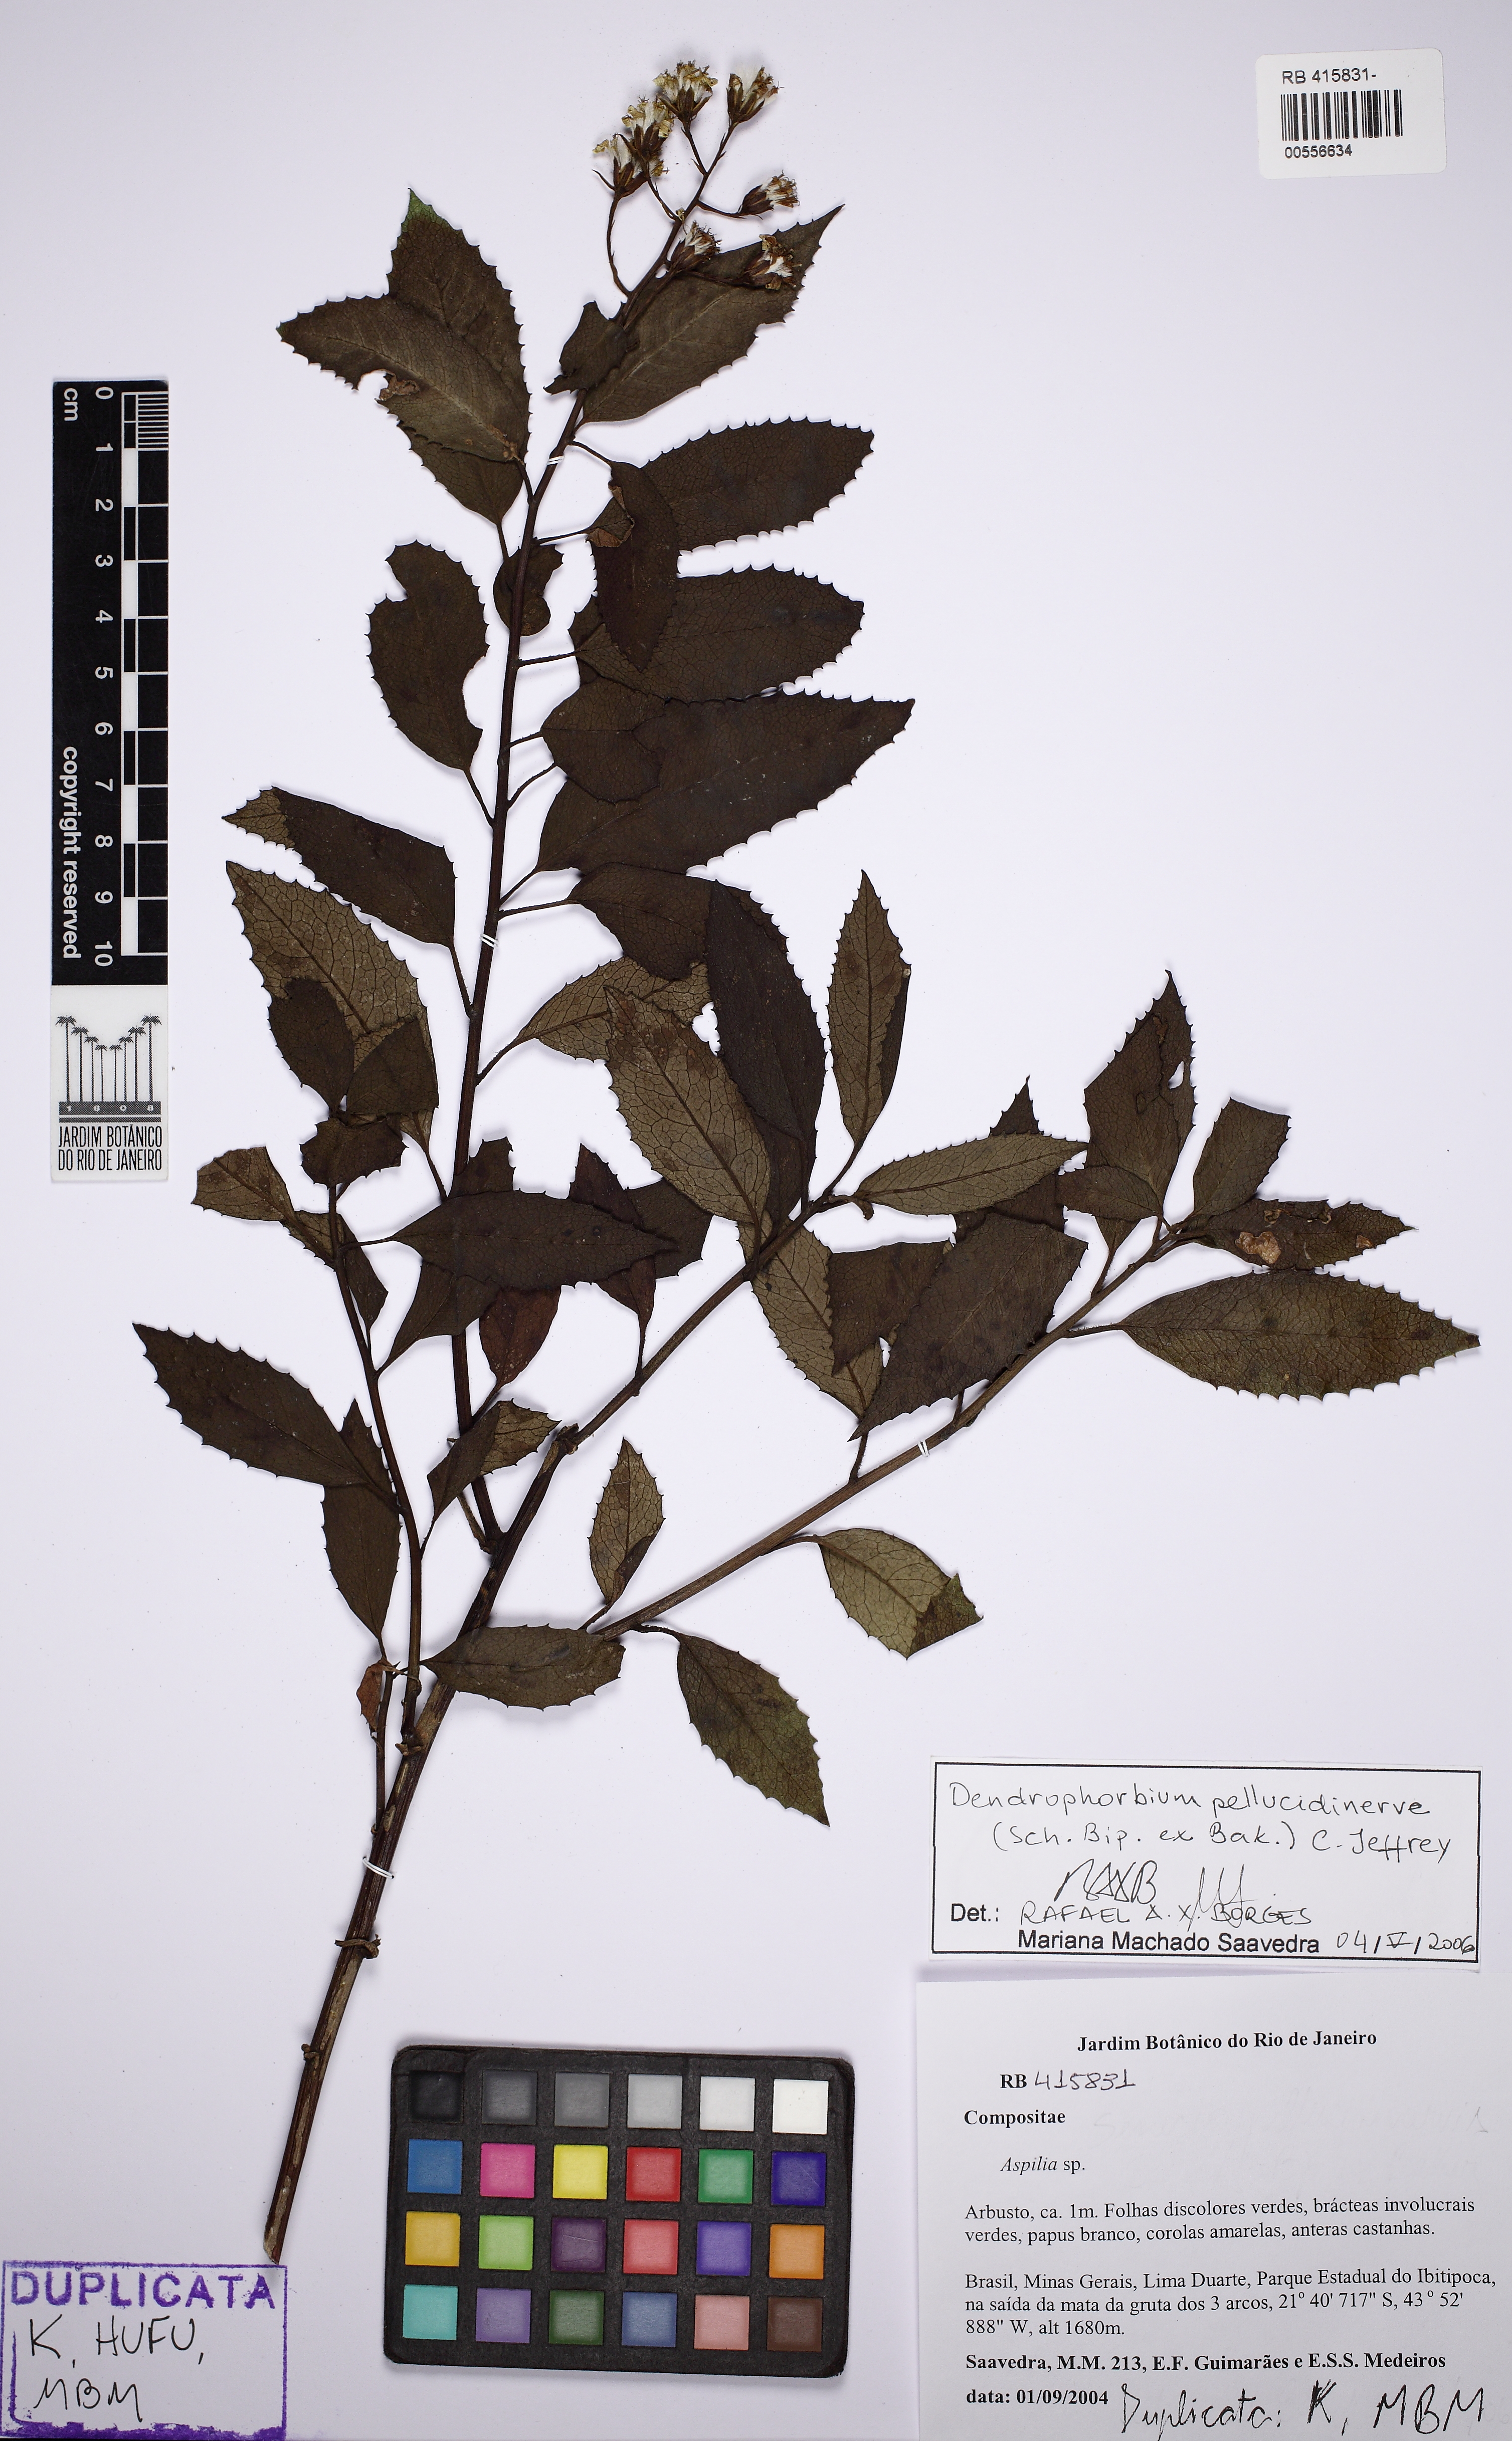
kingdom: Plantae
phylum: Tracheophyta
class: Magnoliopsida
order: Asterales
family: Asteraceae
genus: Dendrophorbium
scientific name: Dendrophorbium pellucidinerve
